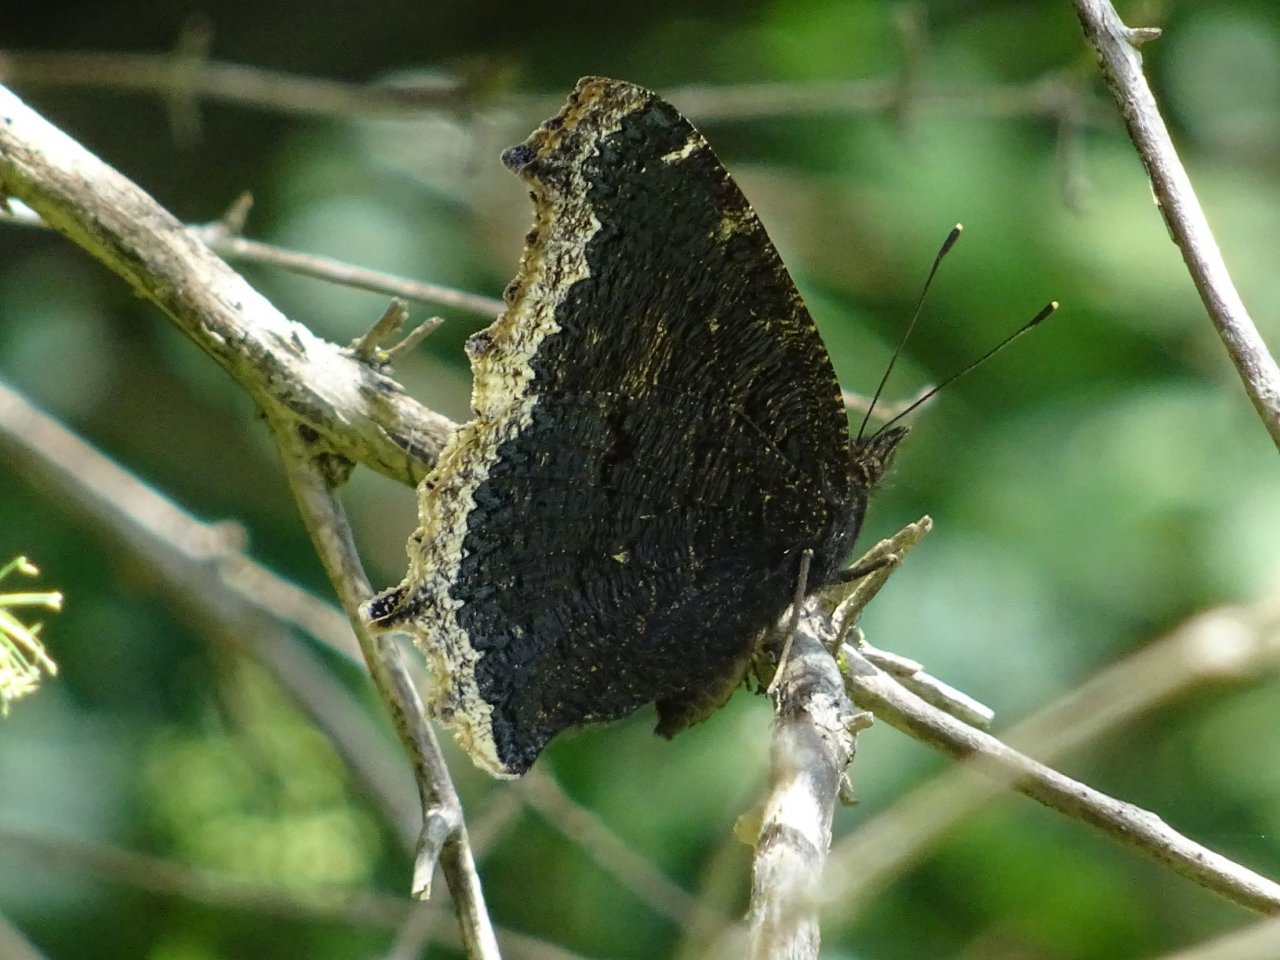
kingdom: Animalia
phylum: Arthropoda
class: Insecta
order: Lepidoptera
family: Nymphalidae
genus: Nymphalis
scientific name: Nymphalis antiopa
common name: Mourning Cloak
